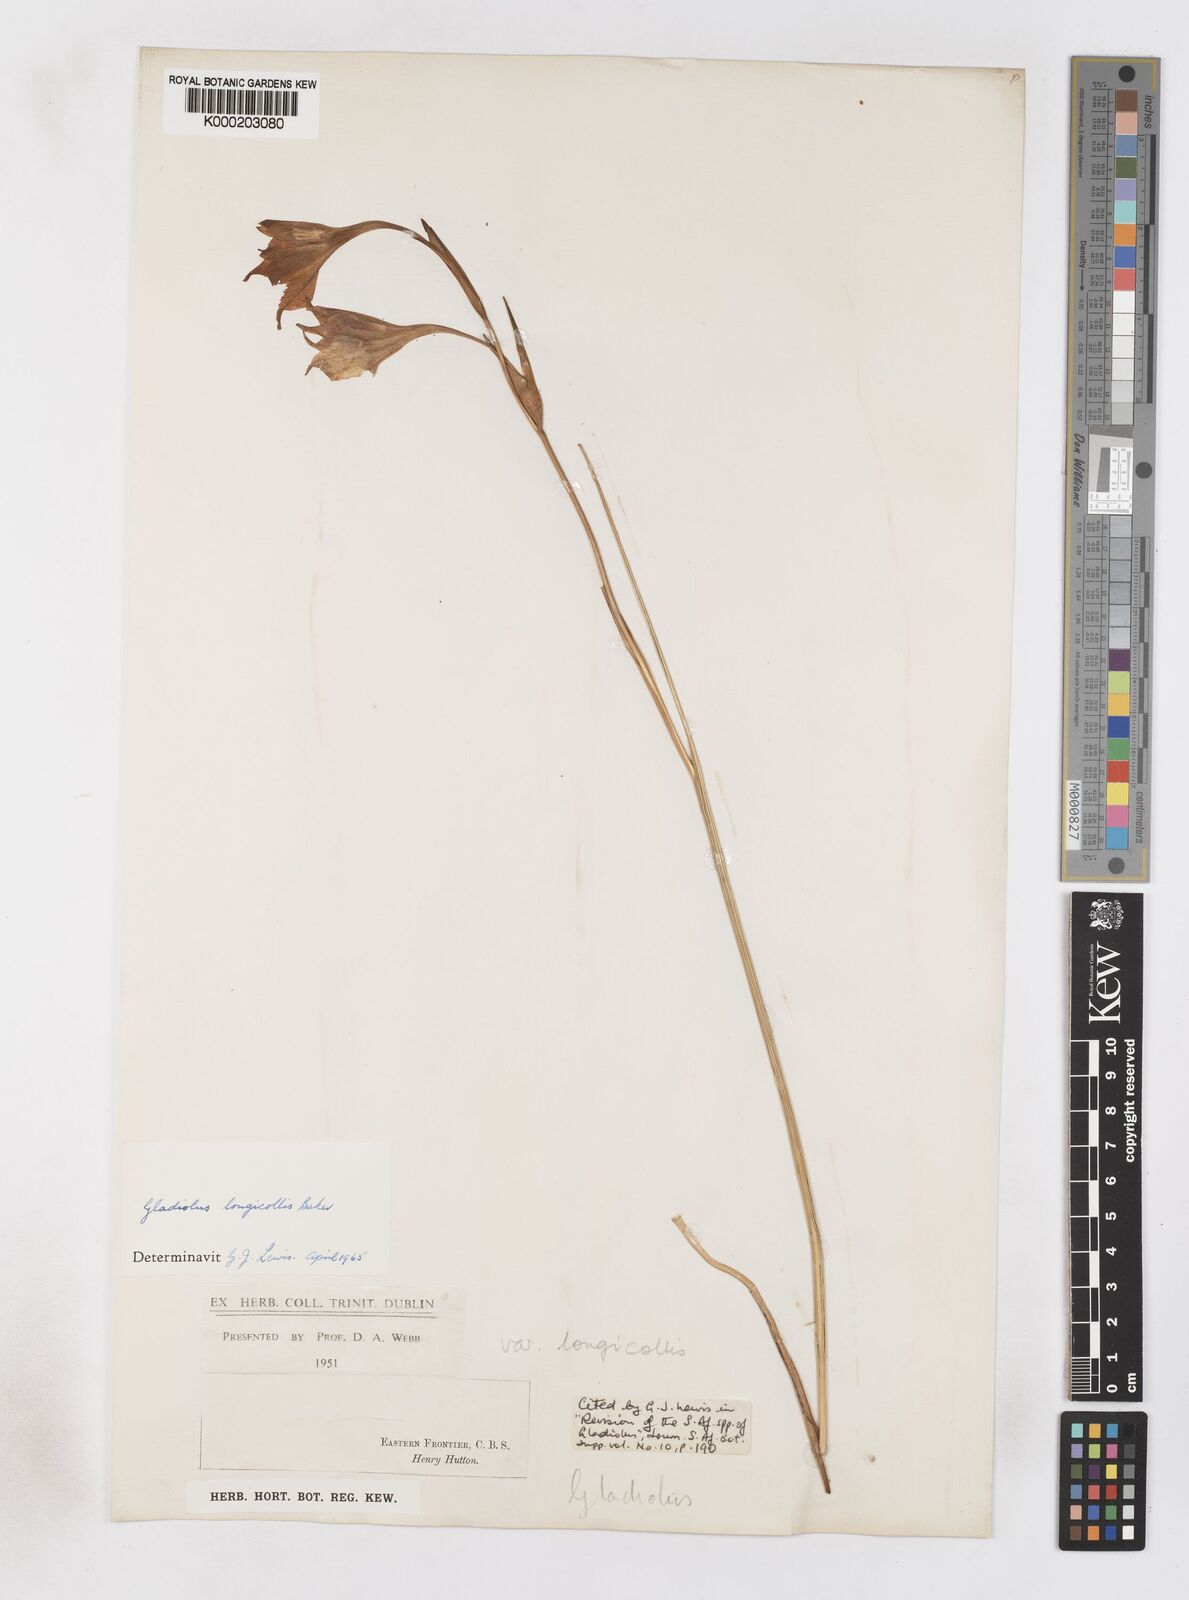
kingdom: Plantae
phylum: Tracheophyta
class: Liliopsida
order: Asparagales
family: Iridaceae
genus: Gladiolus
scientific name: Gladiolus longicollis
